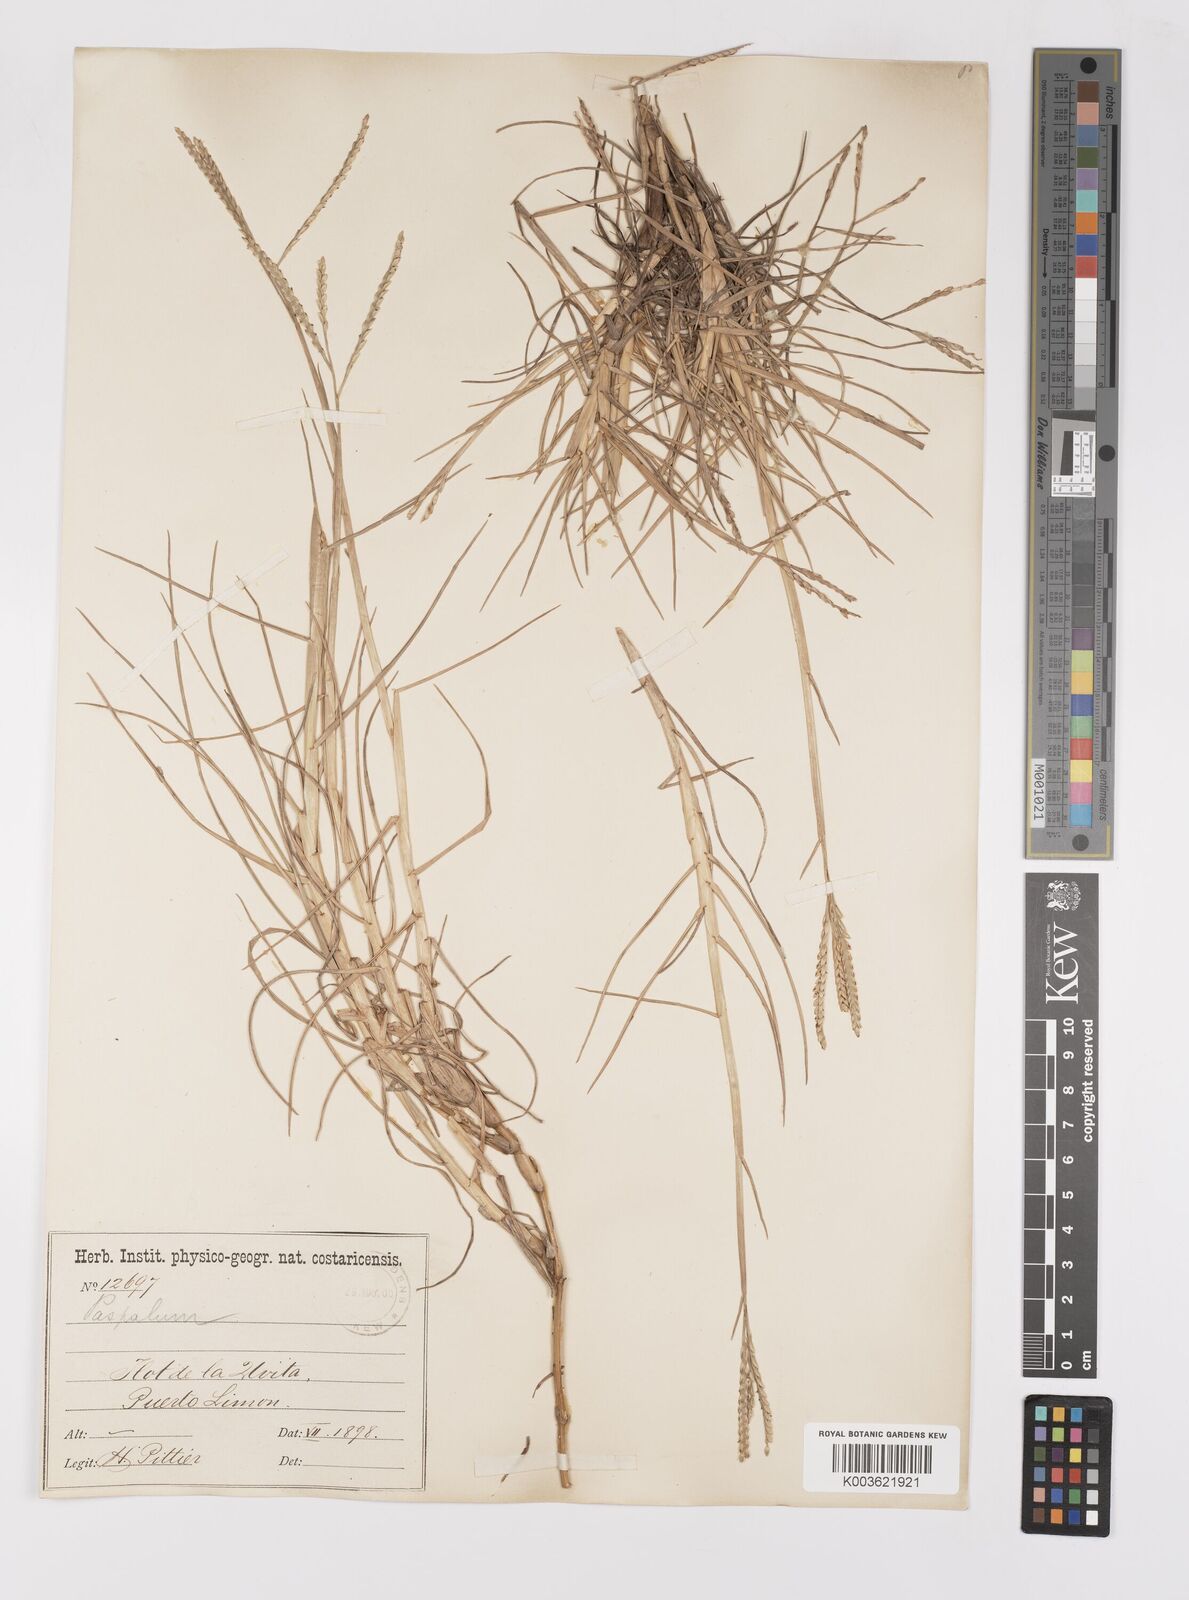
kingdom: Plantae
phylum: Tracheophyta
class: Liliopsida
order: Poales
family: Poaceae
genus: Paspalum
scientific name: Paspalum vaginatum
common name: Seashore paspalum
